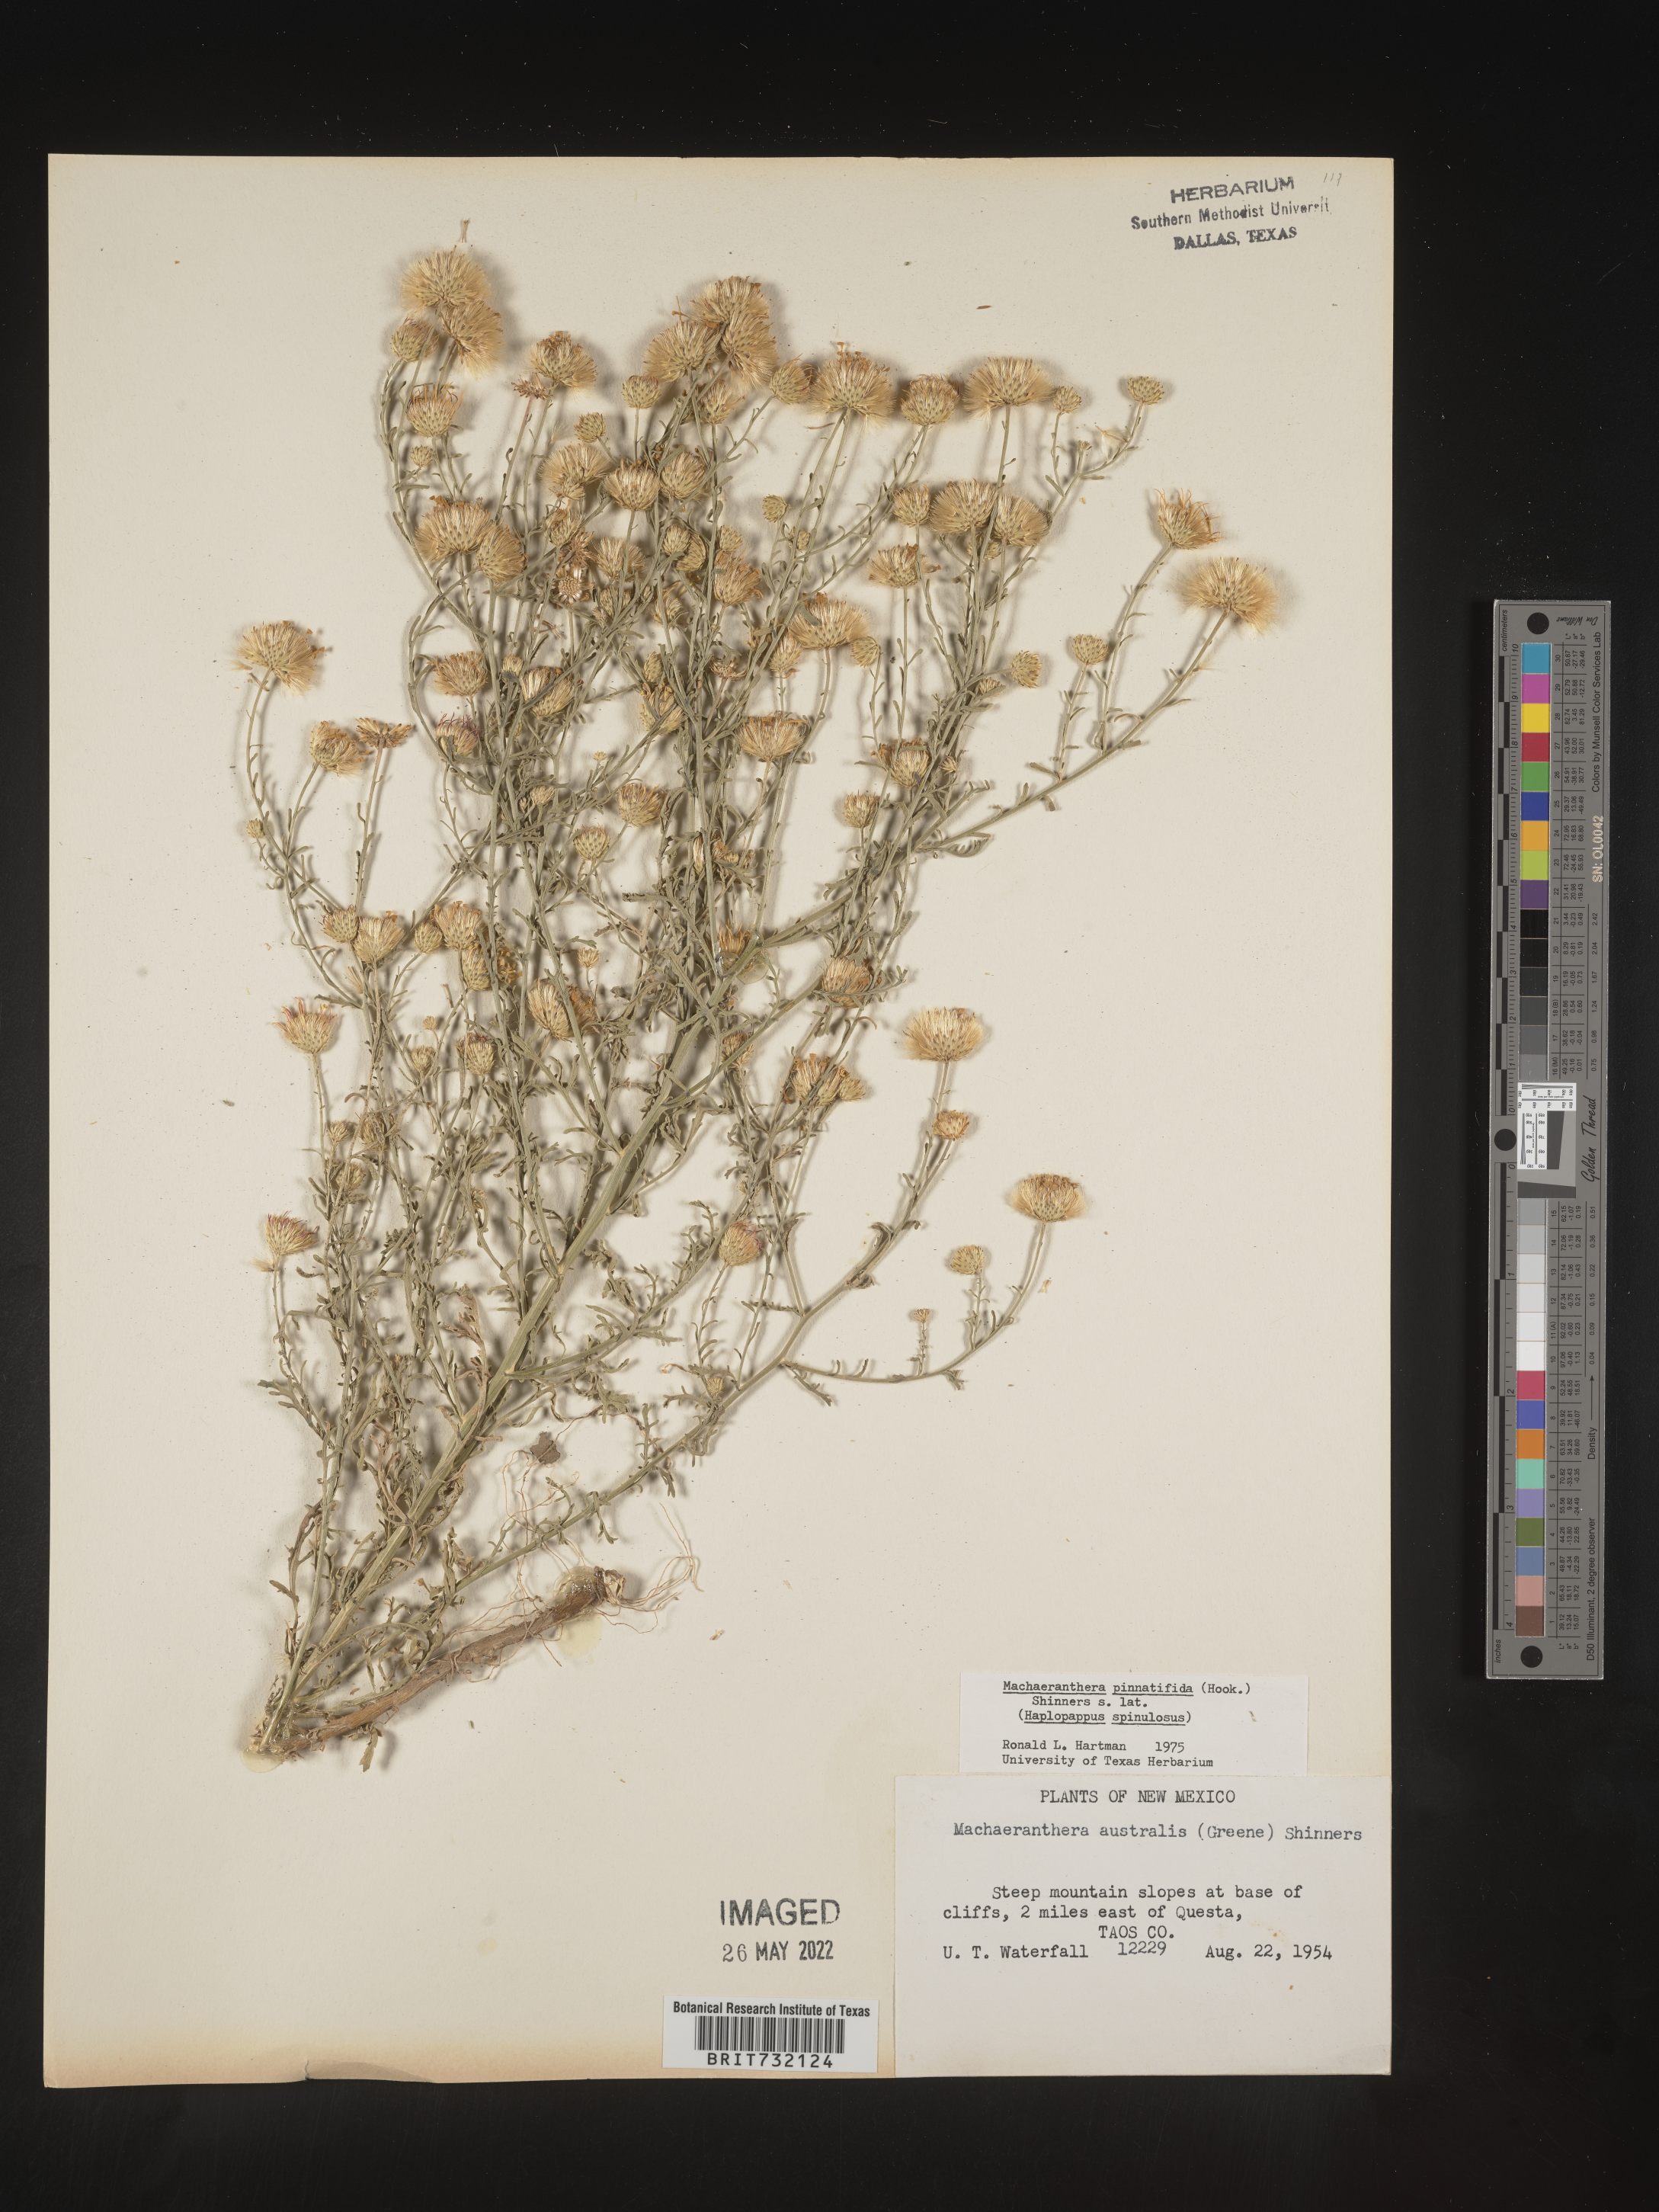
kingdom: Plantae
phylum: Tracheophyta
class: Magnoliopsida
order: Asterales
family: Asteraceae
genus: Xanthisma
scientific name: Xanthisma spinulosum
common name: Spiny goldenweed
